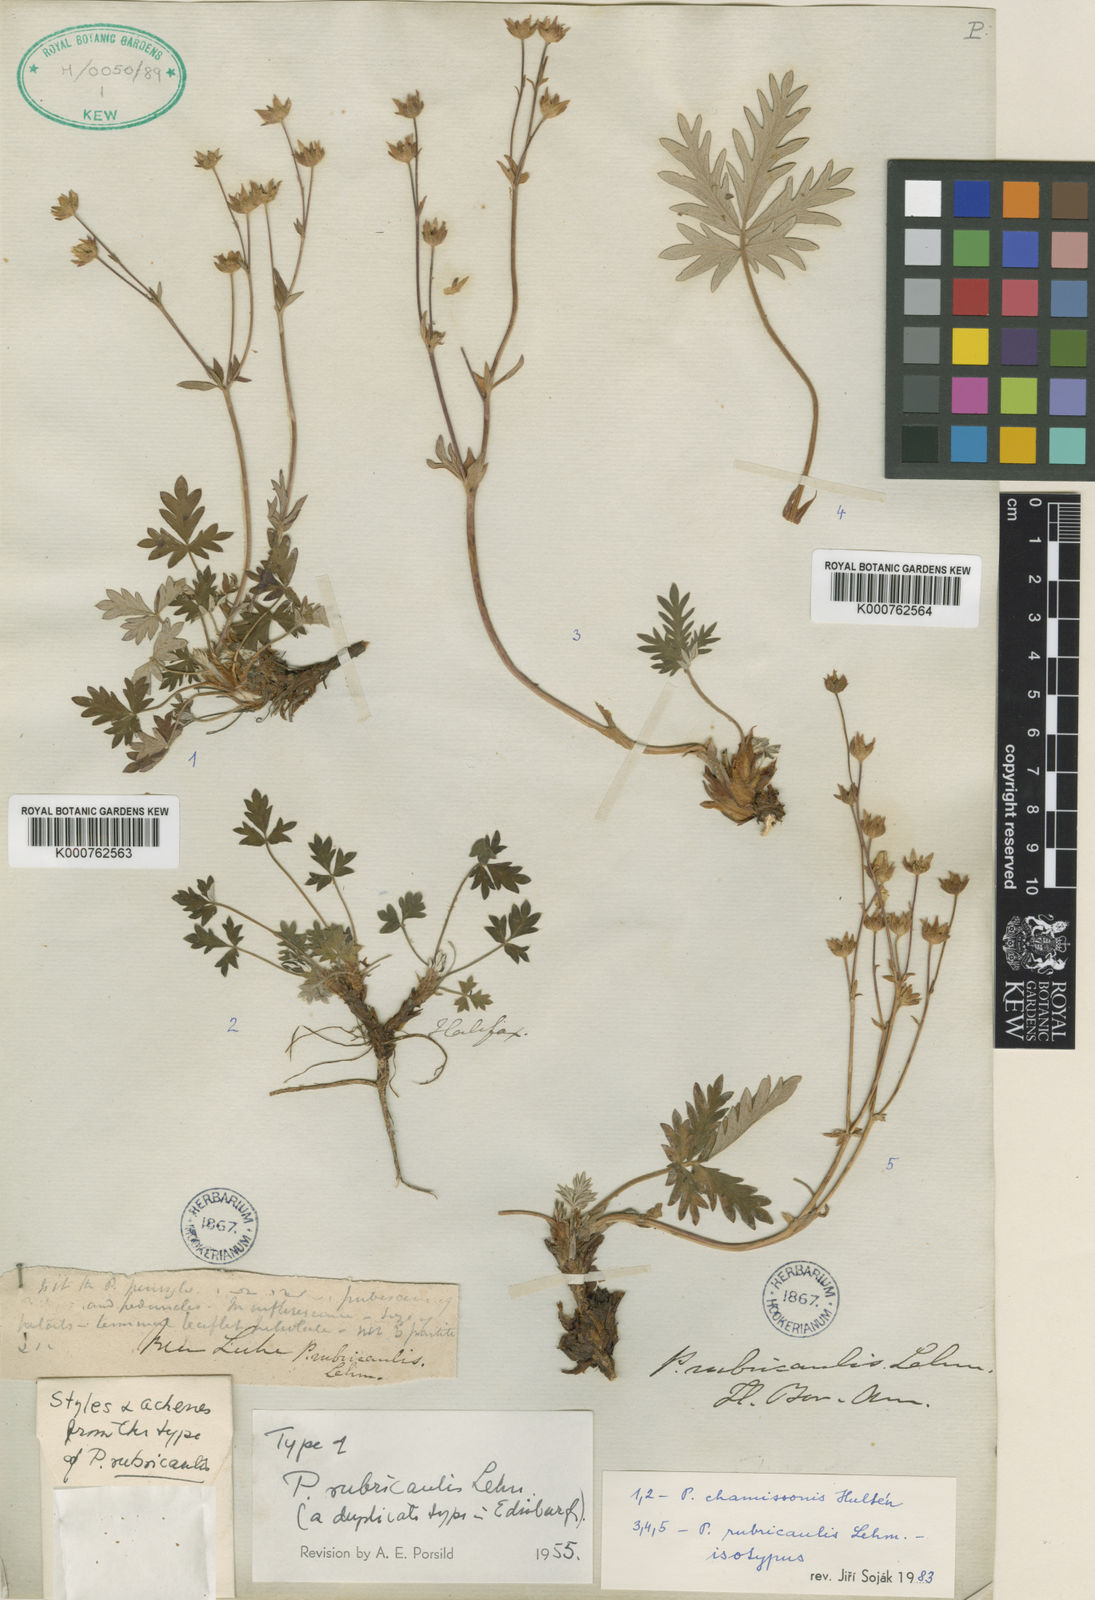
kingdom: Plantae
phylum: Tracheophyta
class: Magnoliopsida
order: Rosales
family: Rosaceae
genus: Potentilla
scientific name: Potentilla rubricaulis
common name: Red-stemmed cinquefoil
